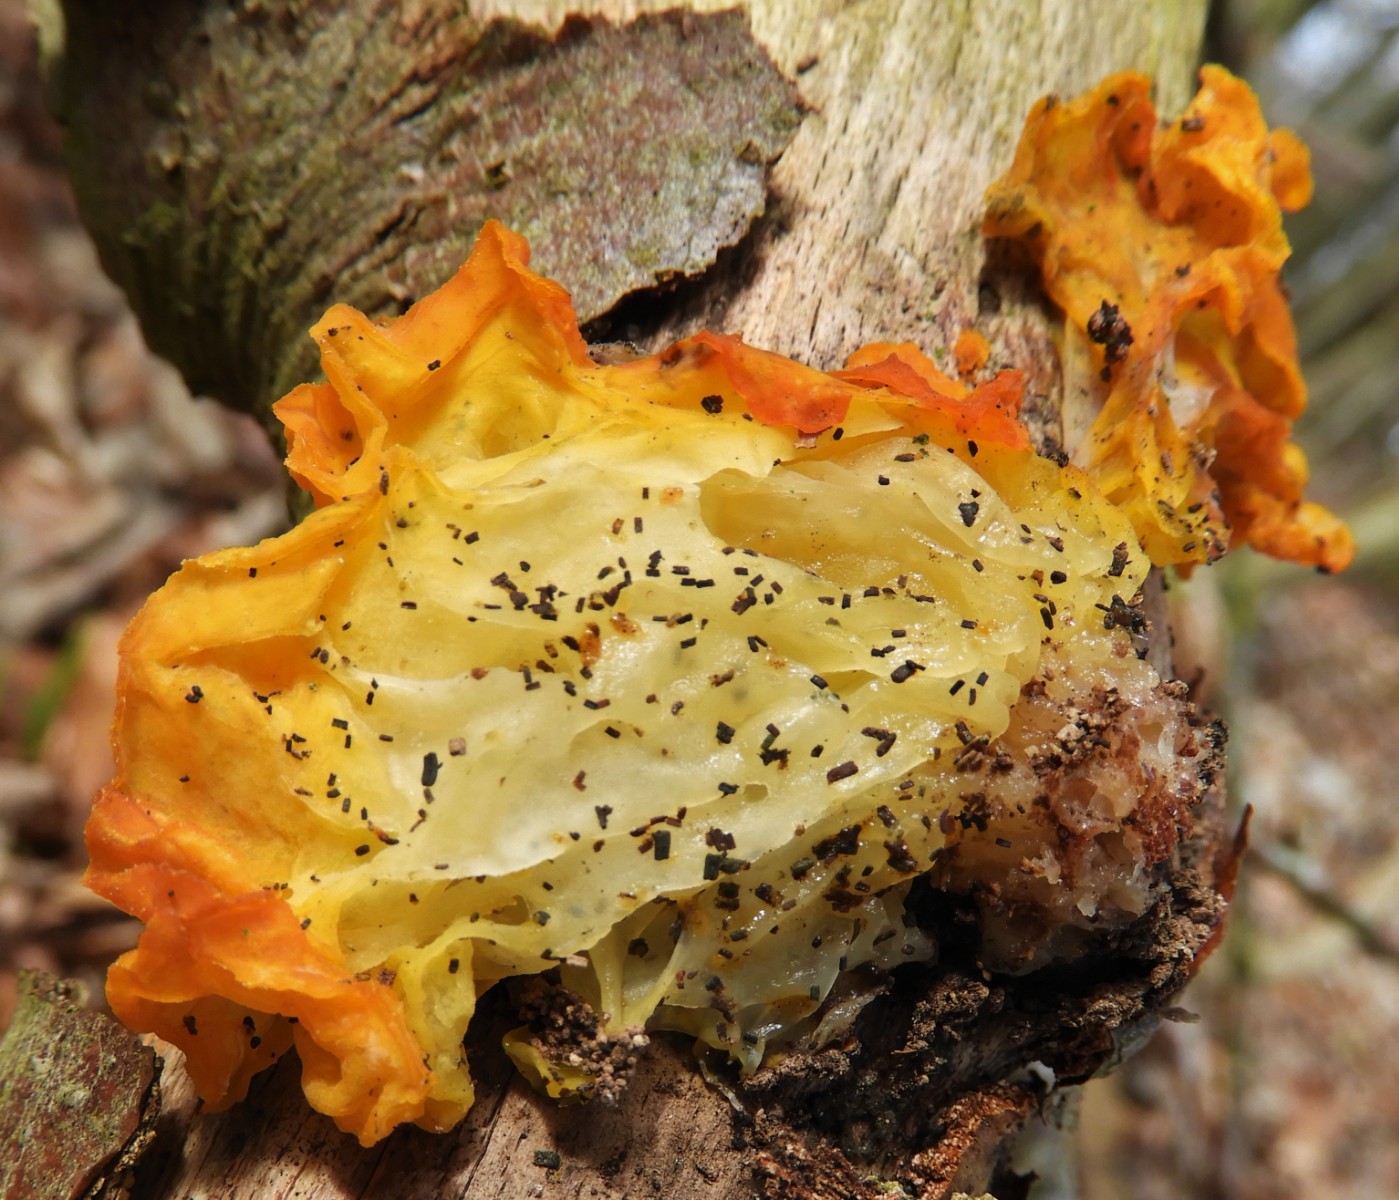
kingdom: Fungi
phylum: Basidiomycota
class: Tremellomycetes
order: Tremellales
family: Tremellaceae
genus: Tremella
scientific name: Tremella mesenterica
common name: gul bævresvamp
